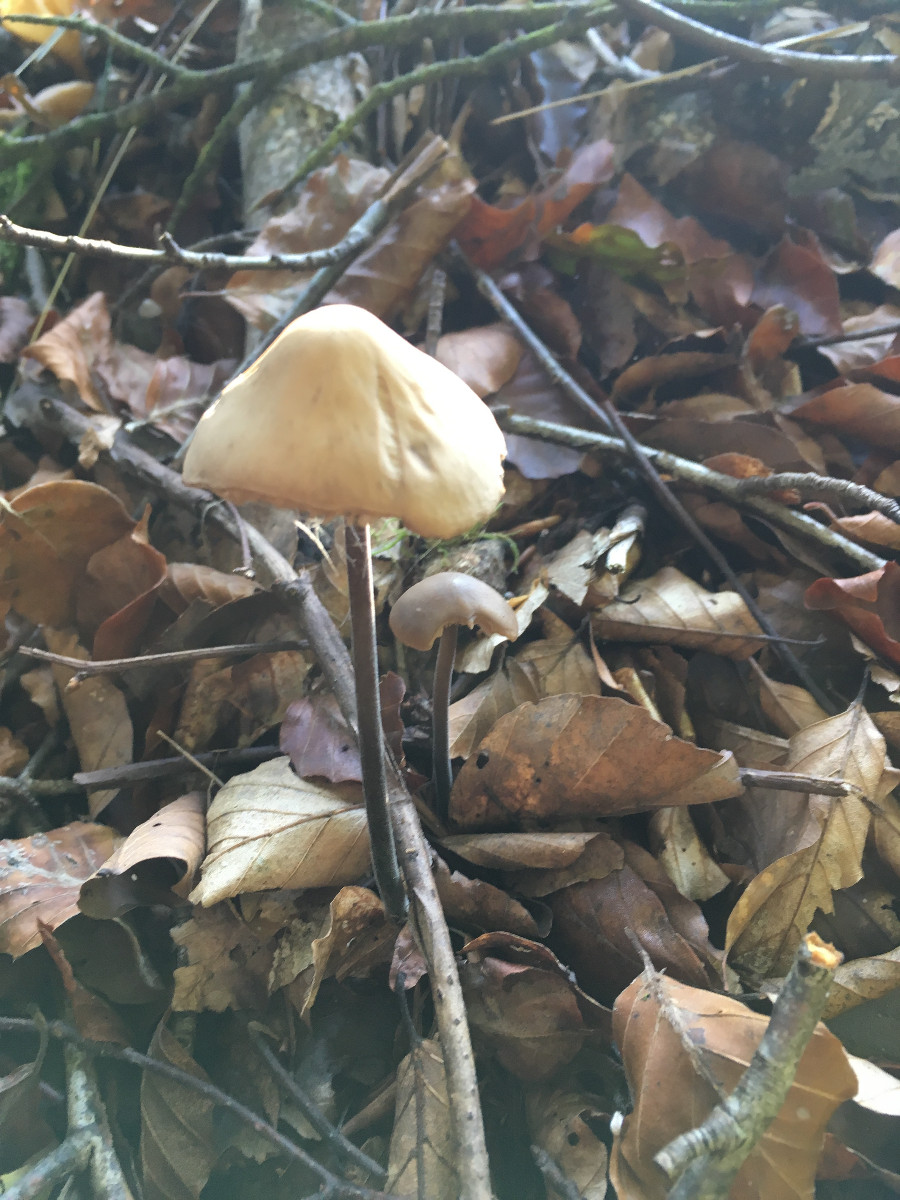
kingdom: Fungi
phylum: Basidiomycota
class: Agaricomycetes
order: Agaricales
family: Omphalotaceae
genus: Mycetinis
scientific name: Mycetinis alliaceus
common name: stor løghat
